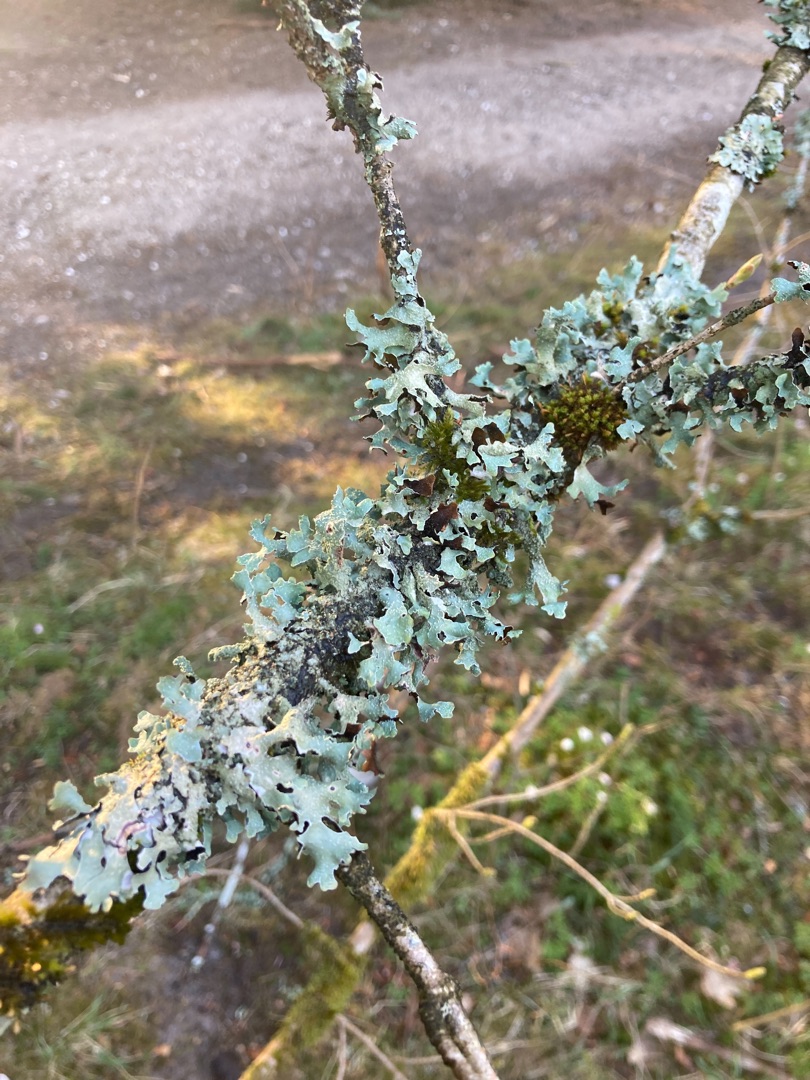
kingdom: Fungi
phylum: Ascomycota
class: Lecanoromycetes
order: Lecanorales
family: Parmeliaceae
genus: Parmelia
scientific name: Parmelia submontana
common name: Langlobet skållav
